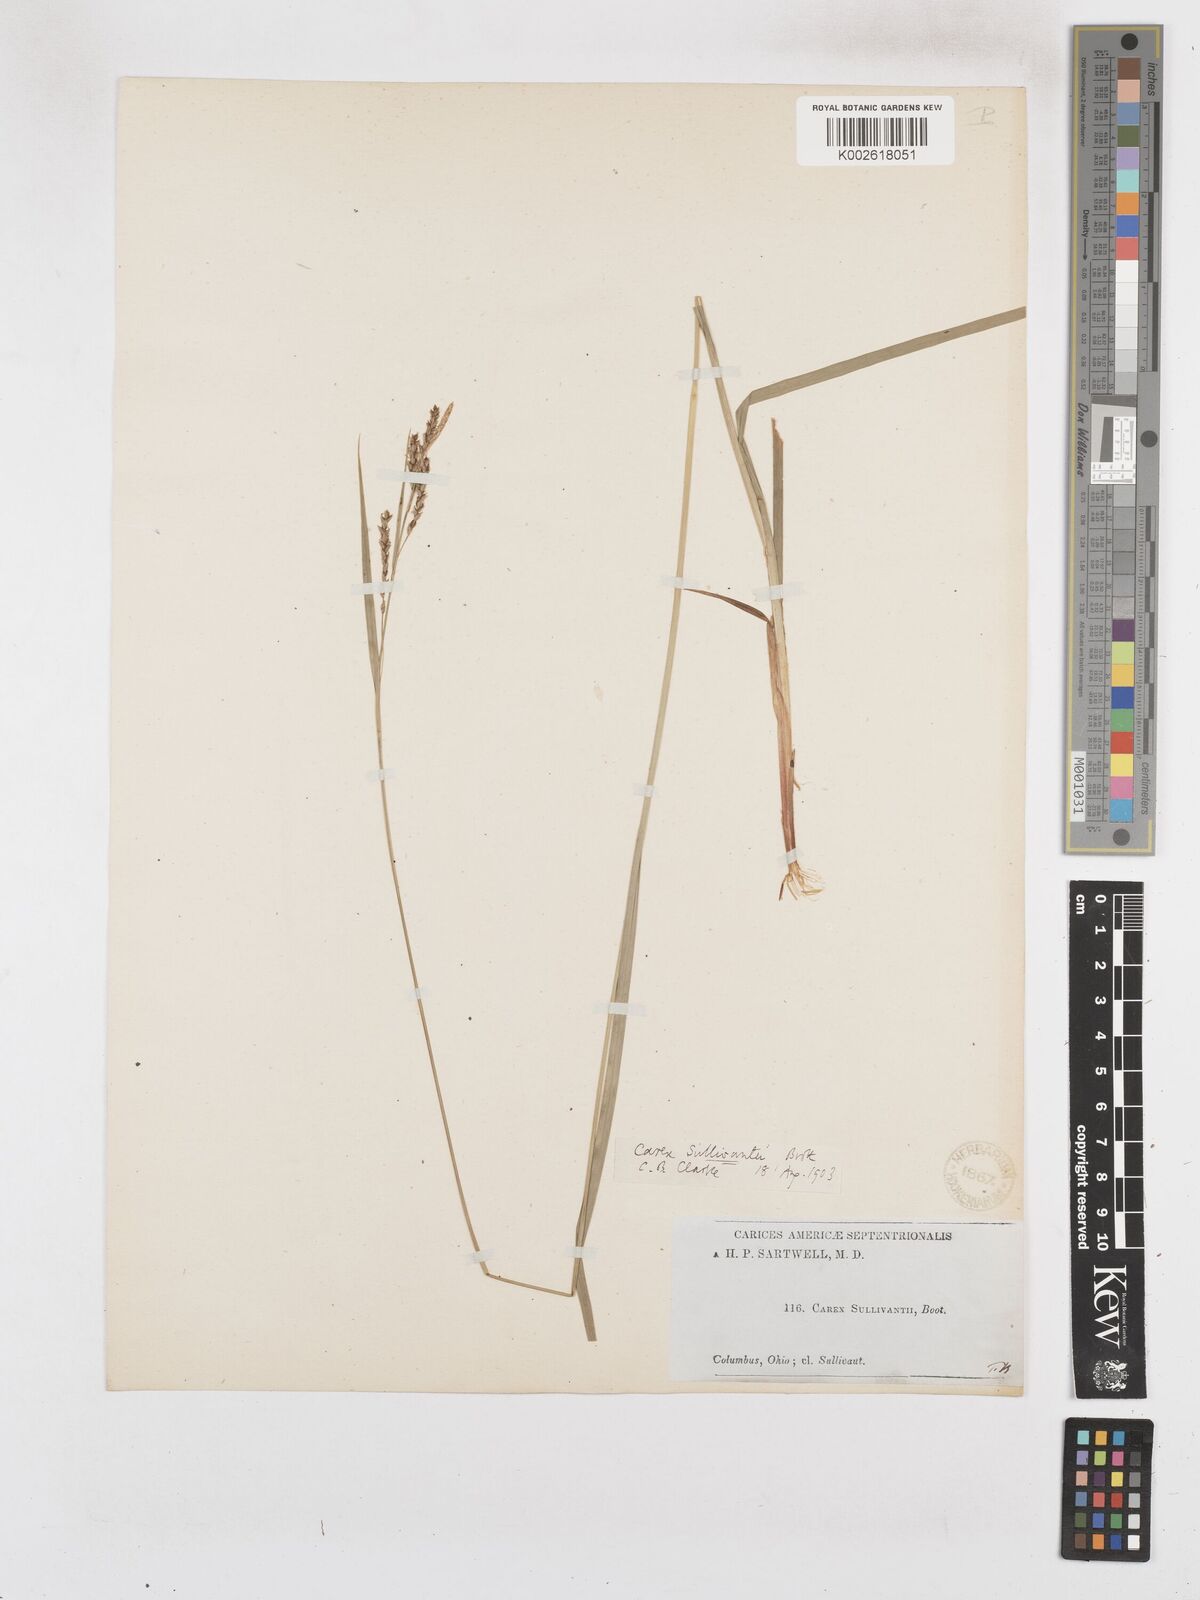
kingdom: Plantae
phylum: Tracheophyta
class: Liliopsida
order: Poales
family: Cyperaceae
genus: Carex
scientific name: Carex sullivantii
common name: Sullivant's sedge
